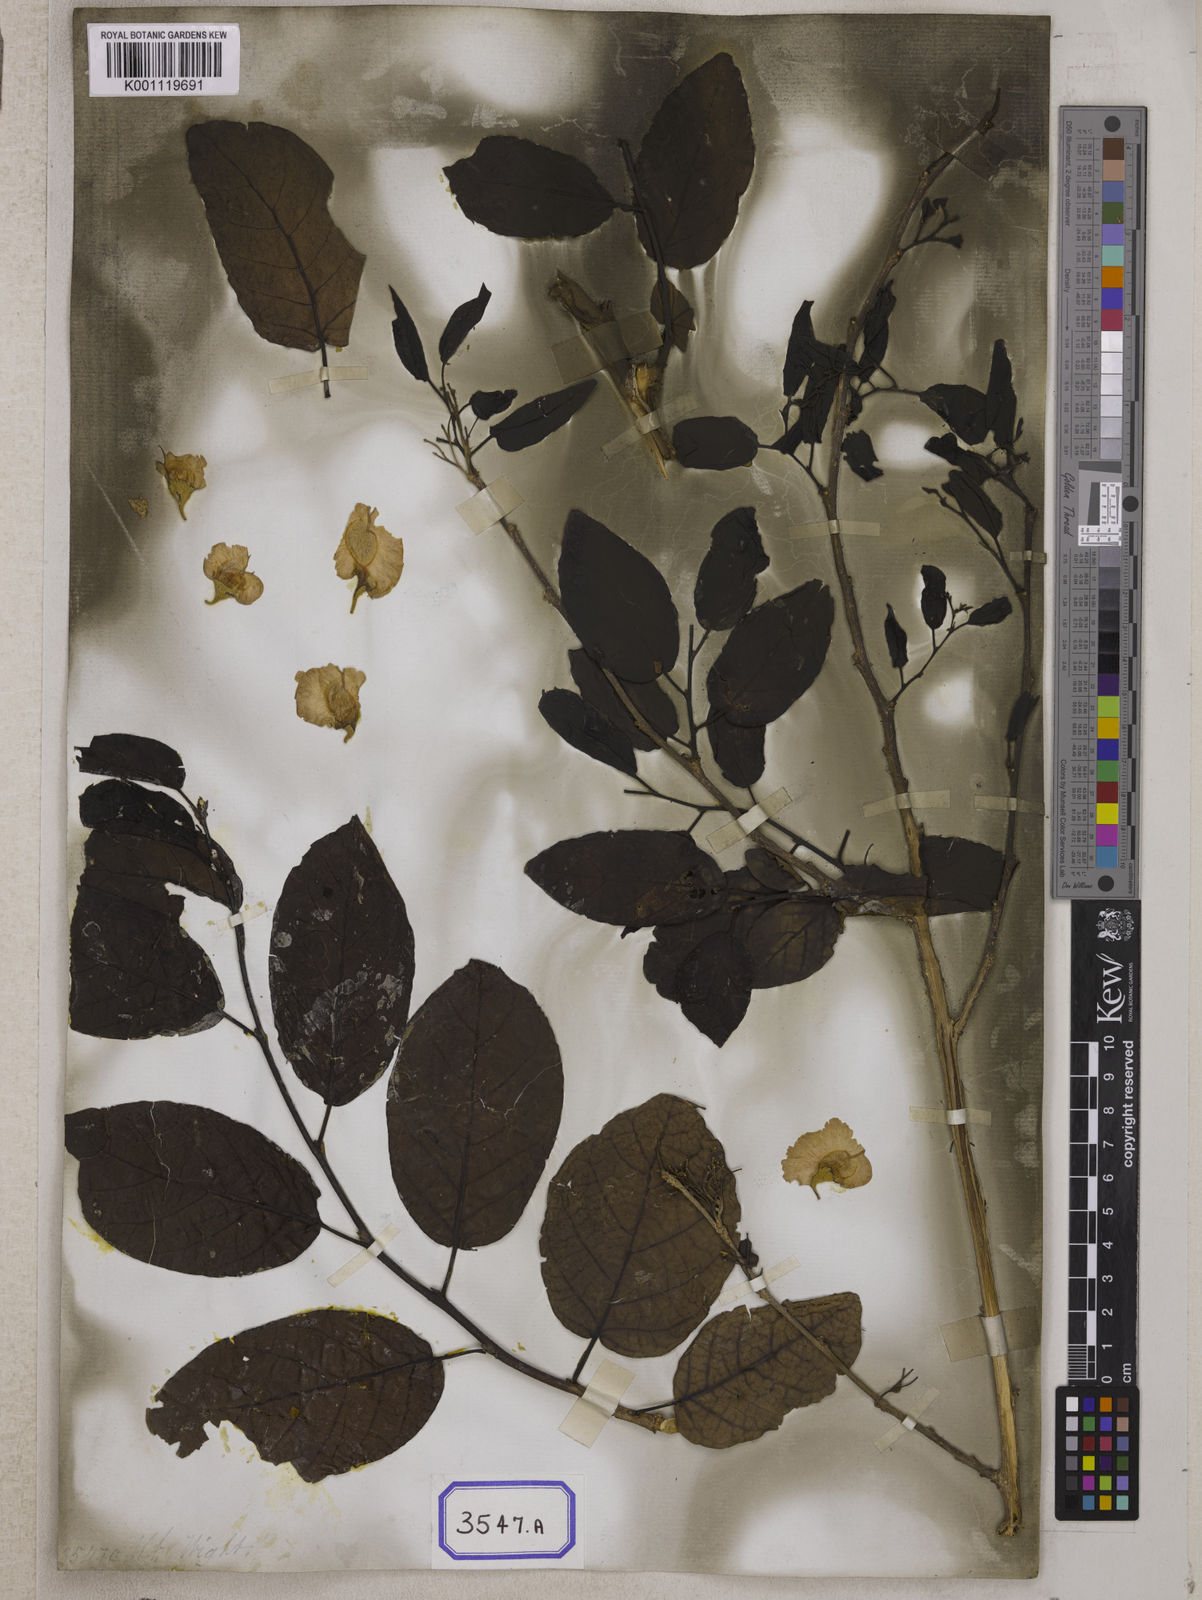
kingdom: Plantae
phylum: Tracheophyta
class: Magnoliopsida
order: Rosales
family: Ulmaceae
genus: Holoptelea
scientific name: Holoptelea integrifolia
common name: Indian-elm
